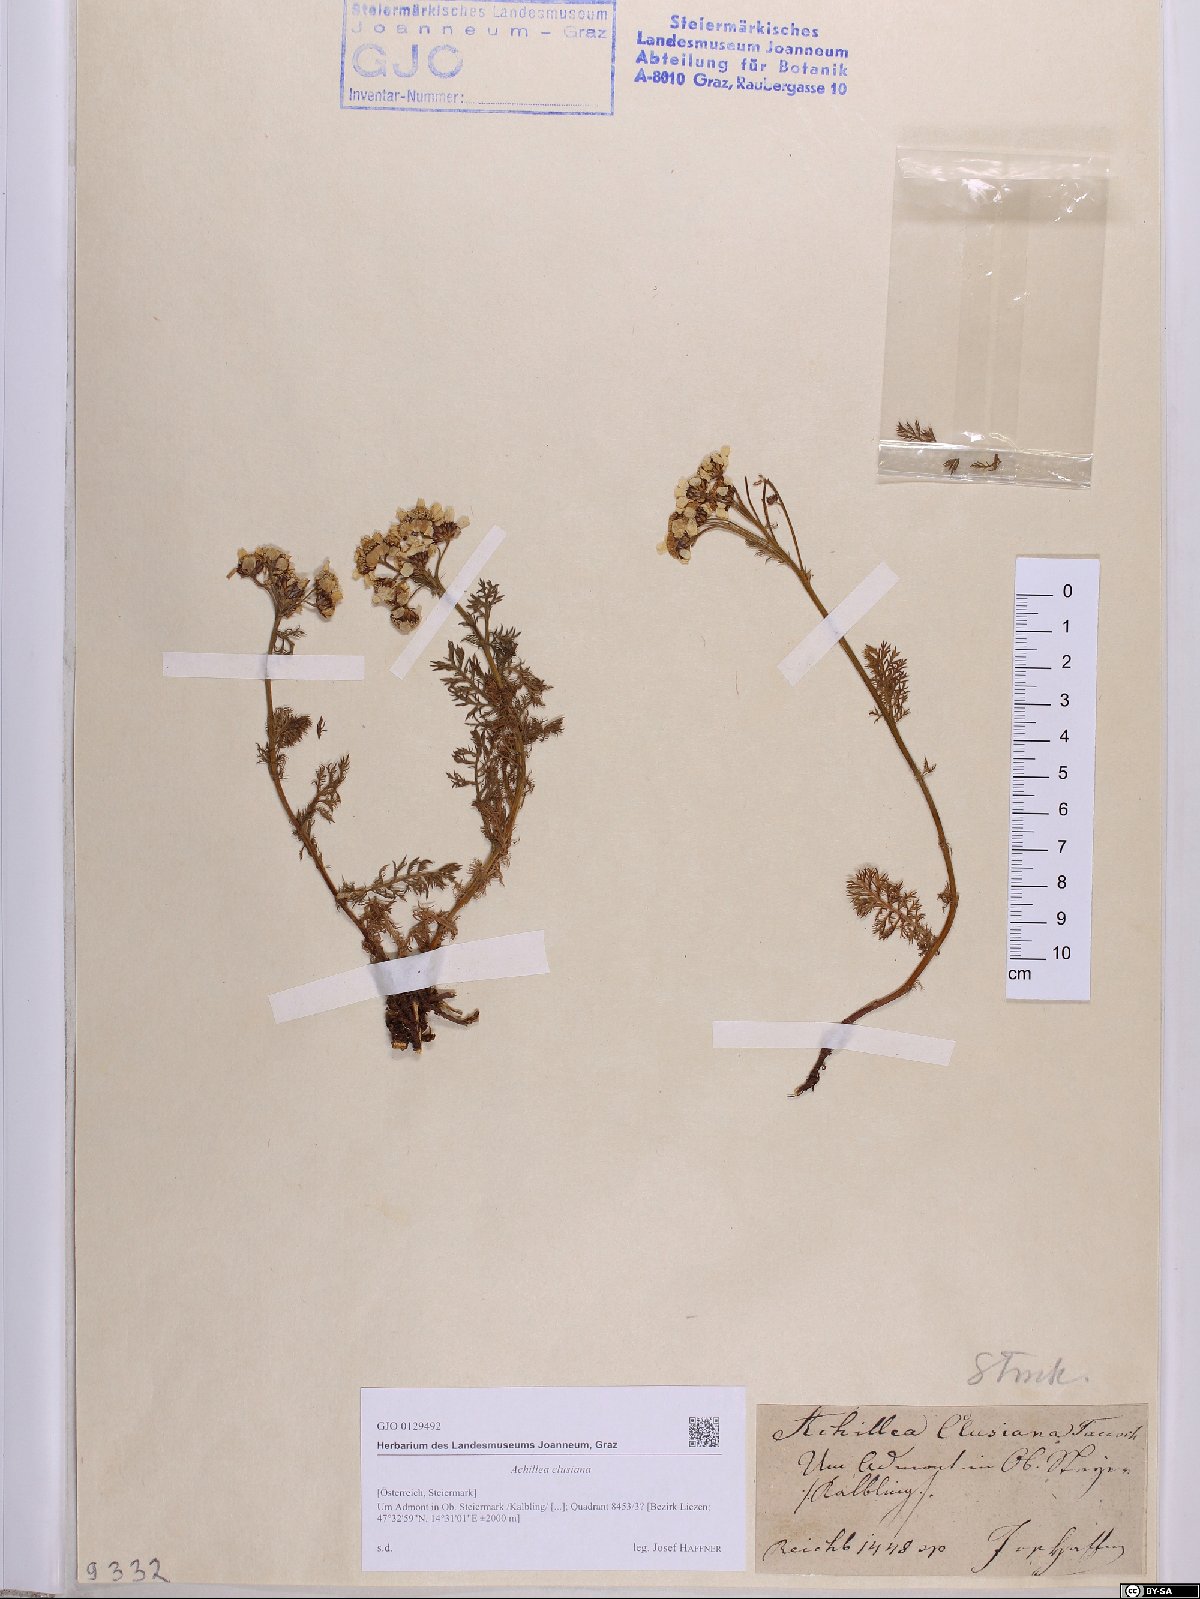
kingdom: Plantae
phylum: Tracheophyta
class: Magnoliopsida
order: Asterales
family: Asteraceae
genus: Achillea
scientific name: Achillea clusiana
